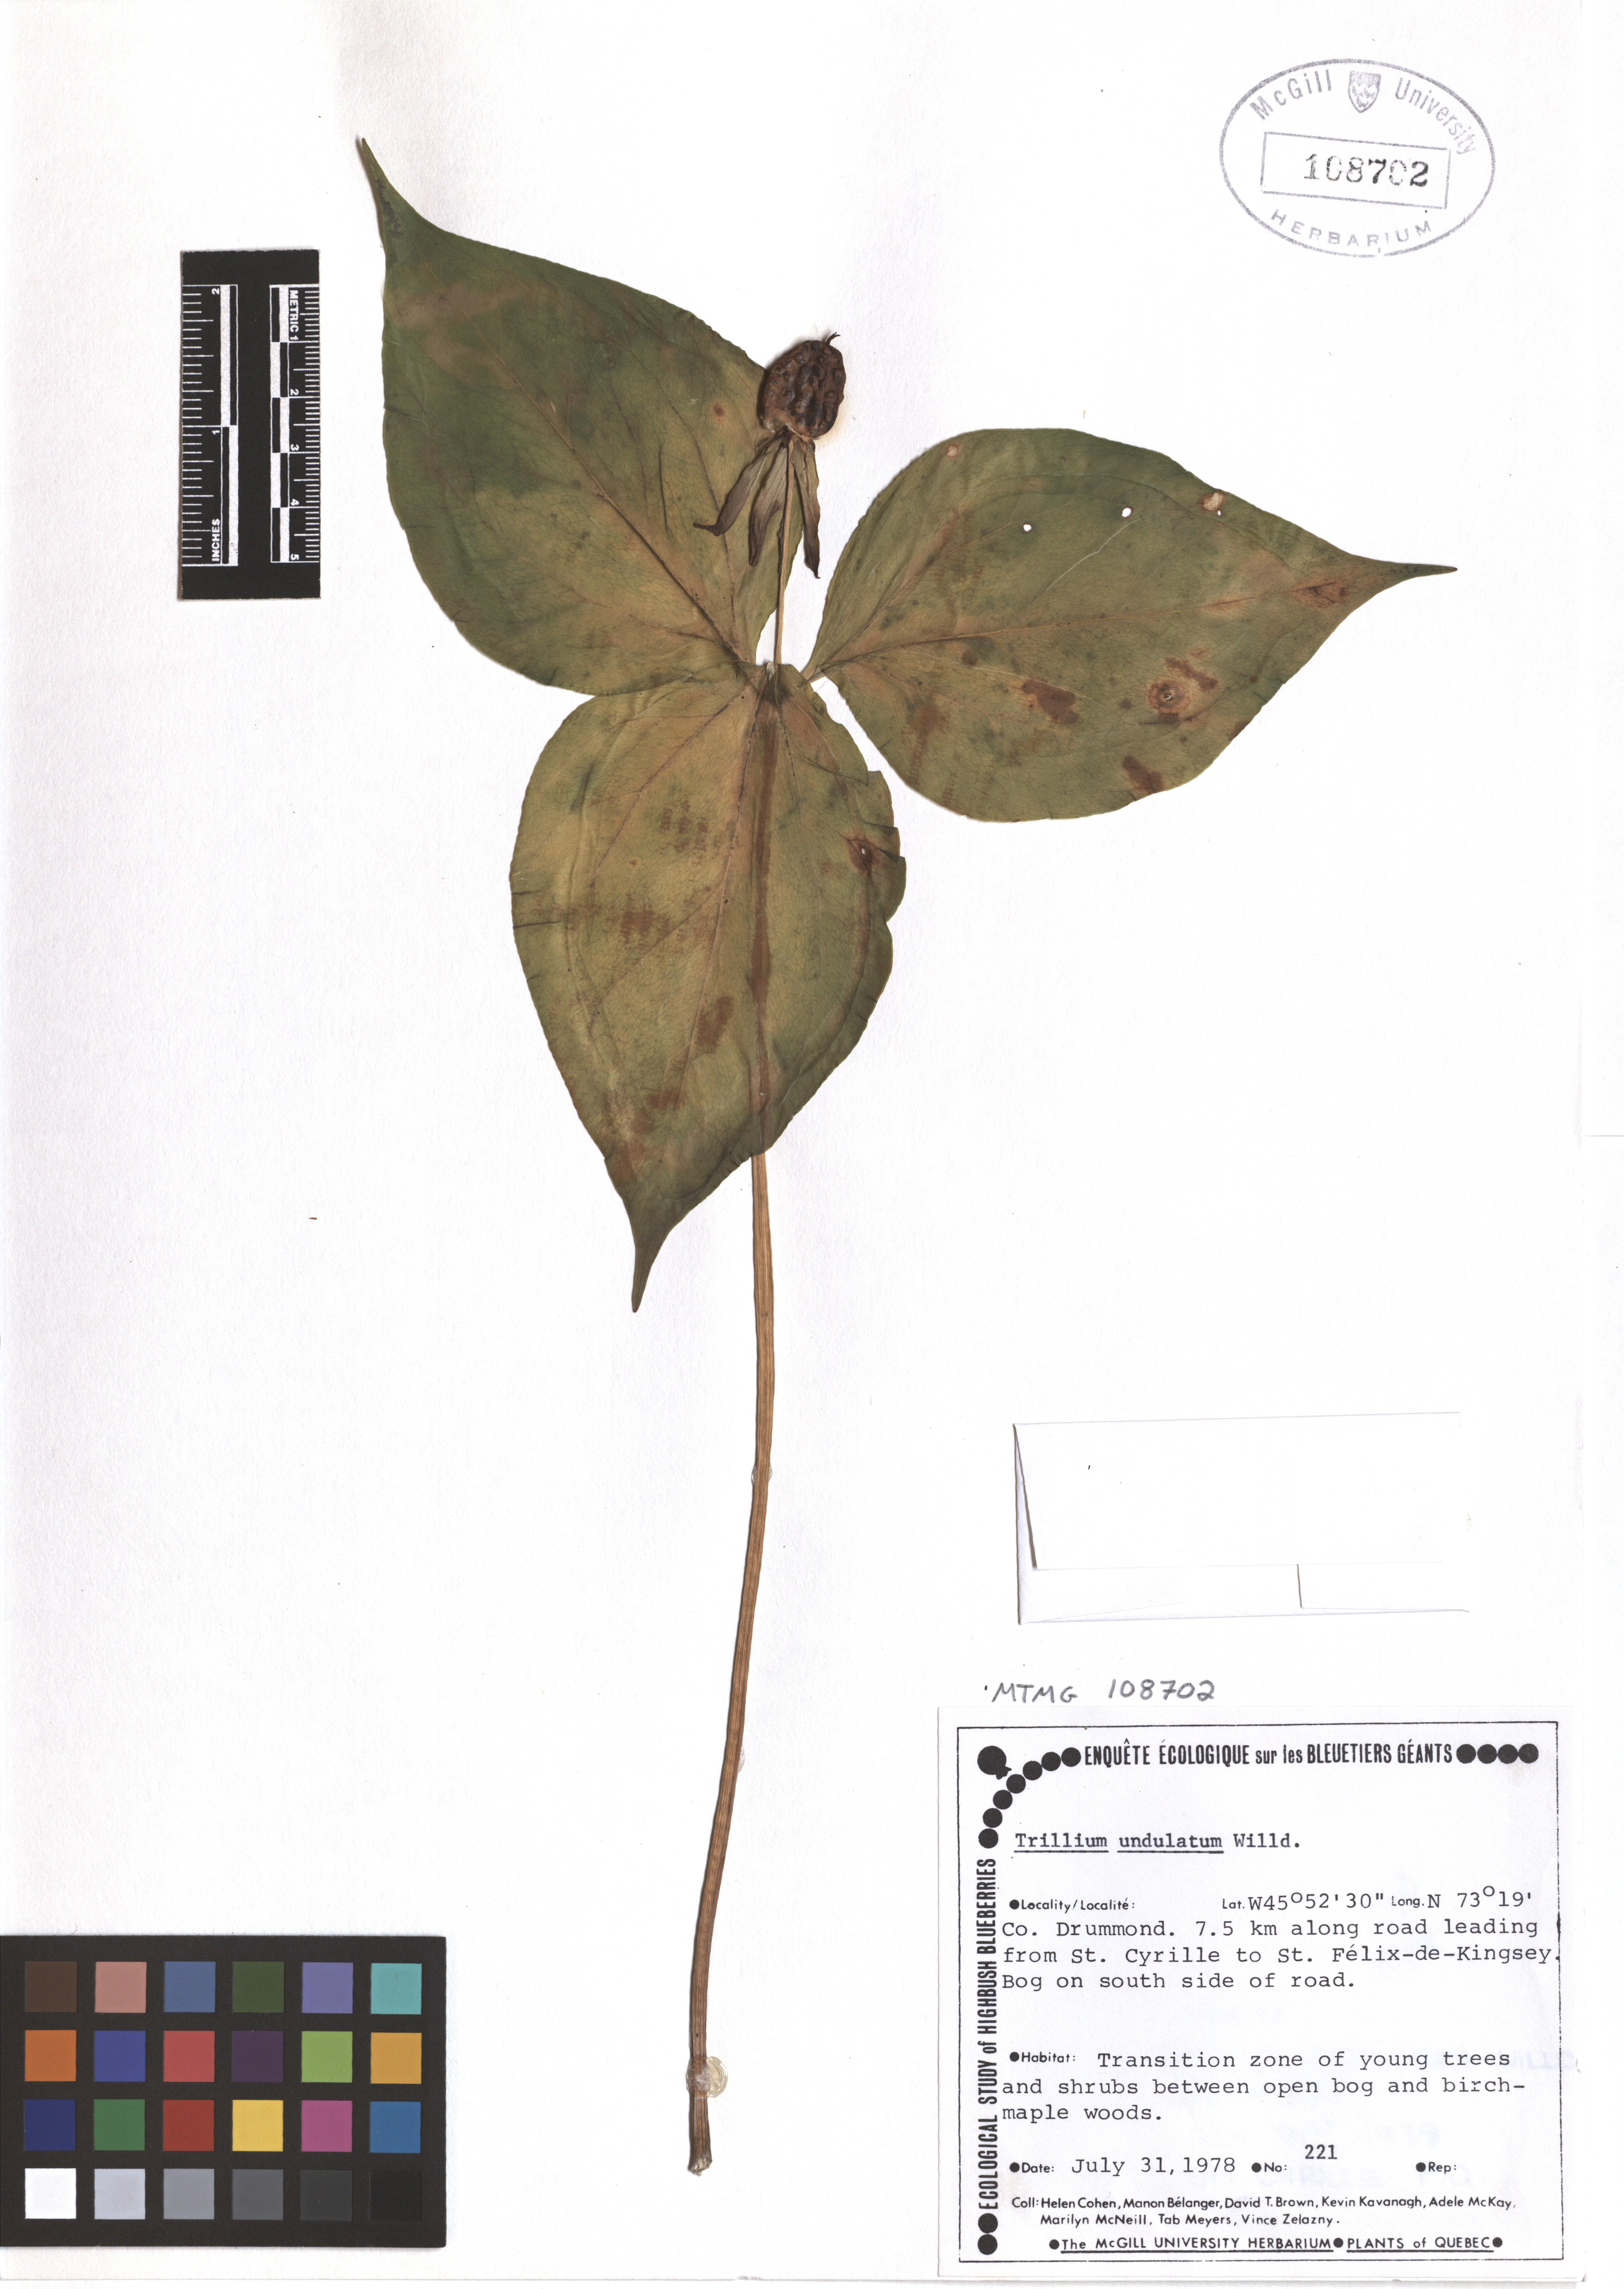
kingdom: Plantae
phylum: Tracheophyta
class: Liliopsida
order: Liliales
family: Melanthiaceae
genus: Trillium
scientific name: Trillium undulatum
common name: Paint trillium
